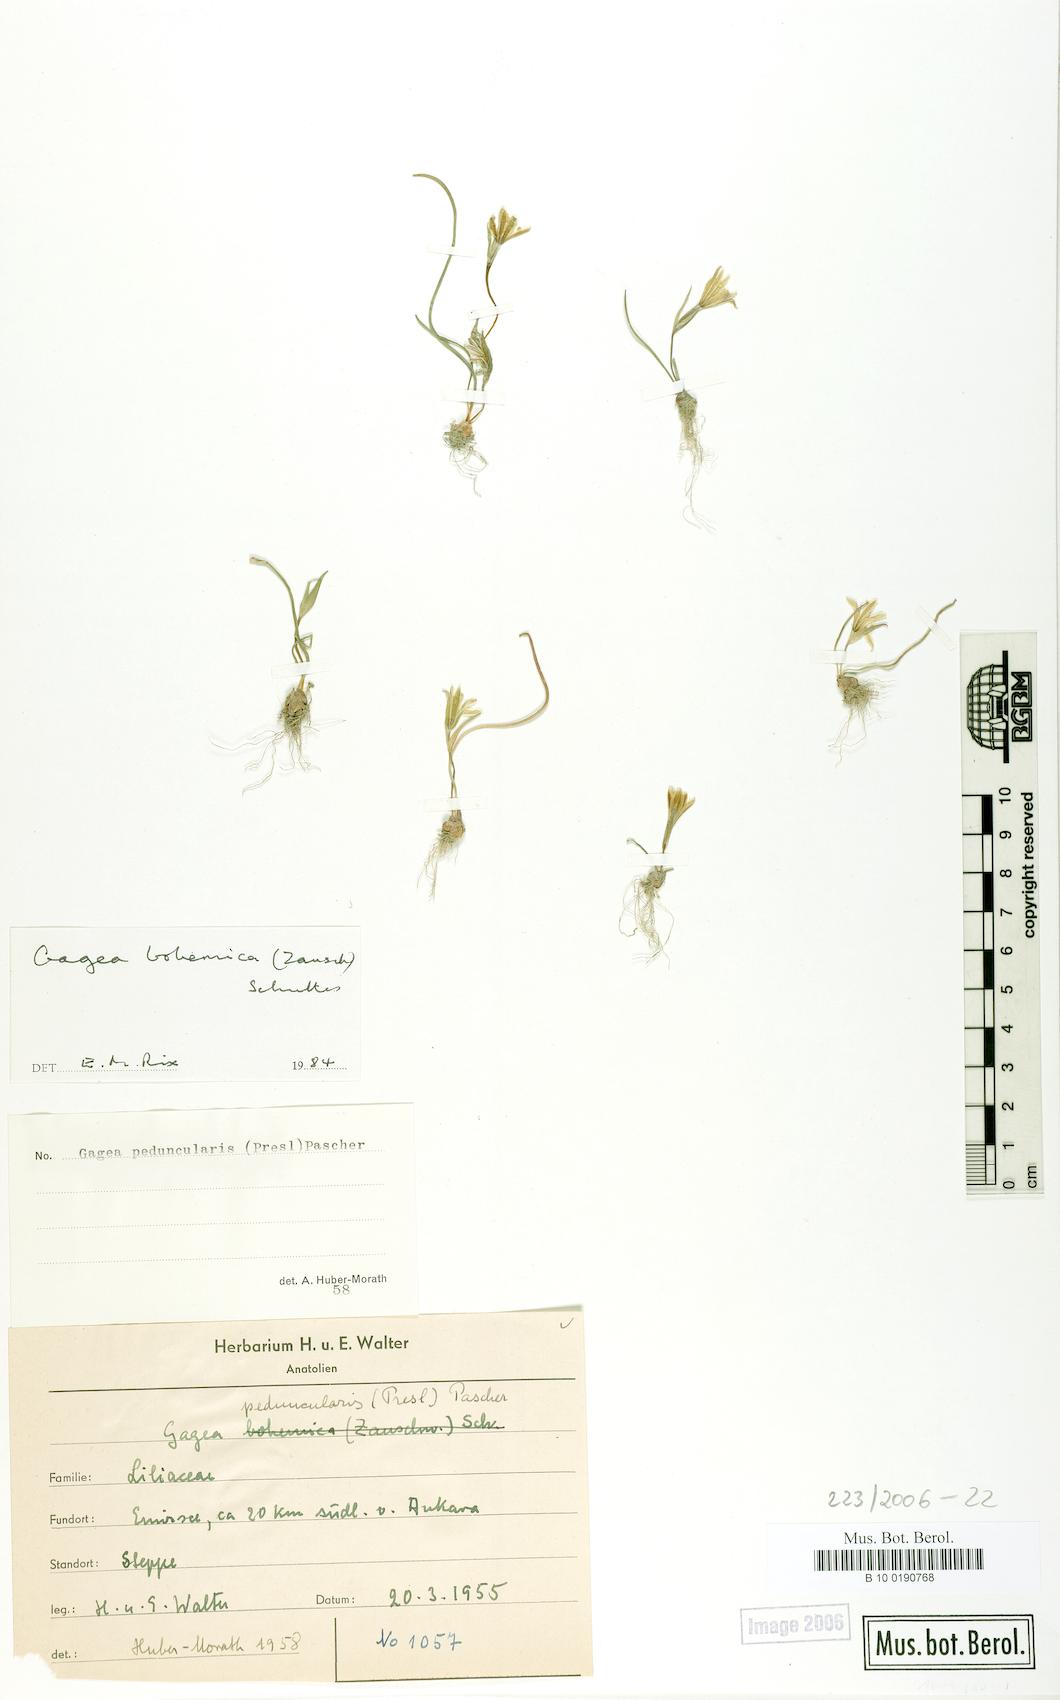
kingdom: Plantae
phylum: Tracheophyta
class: Liliopsida
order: Liliales
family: Liliaceae
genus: Gagea
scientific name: Gagea peduncularis
